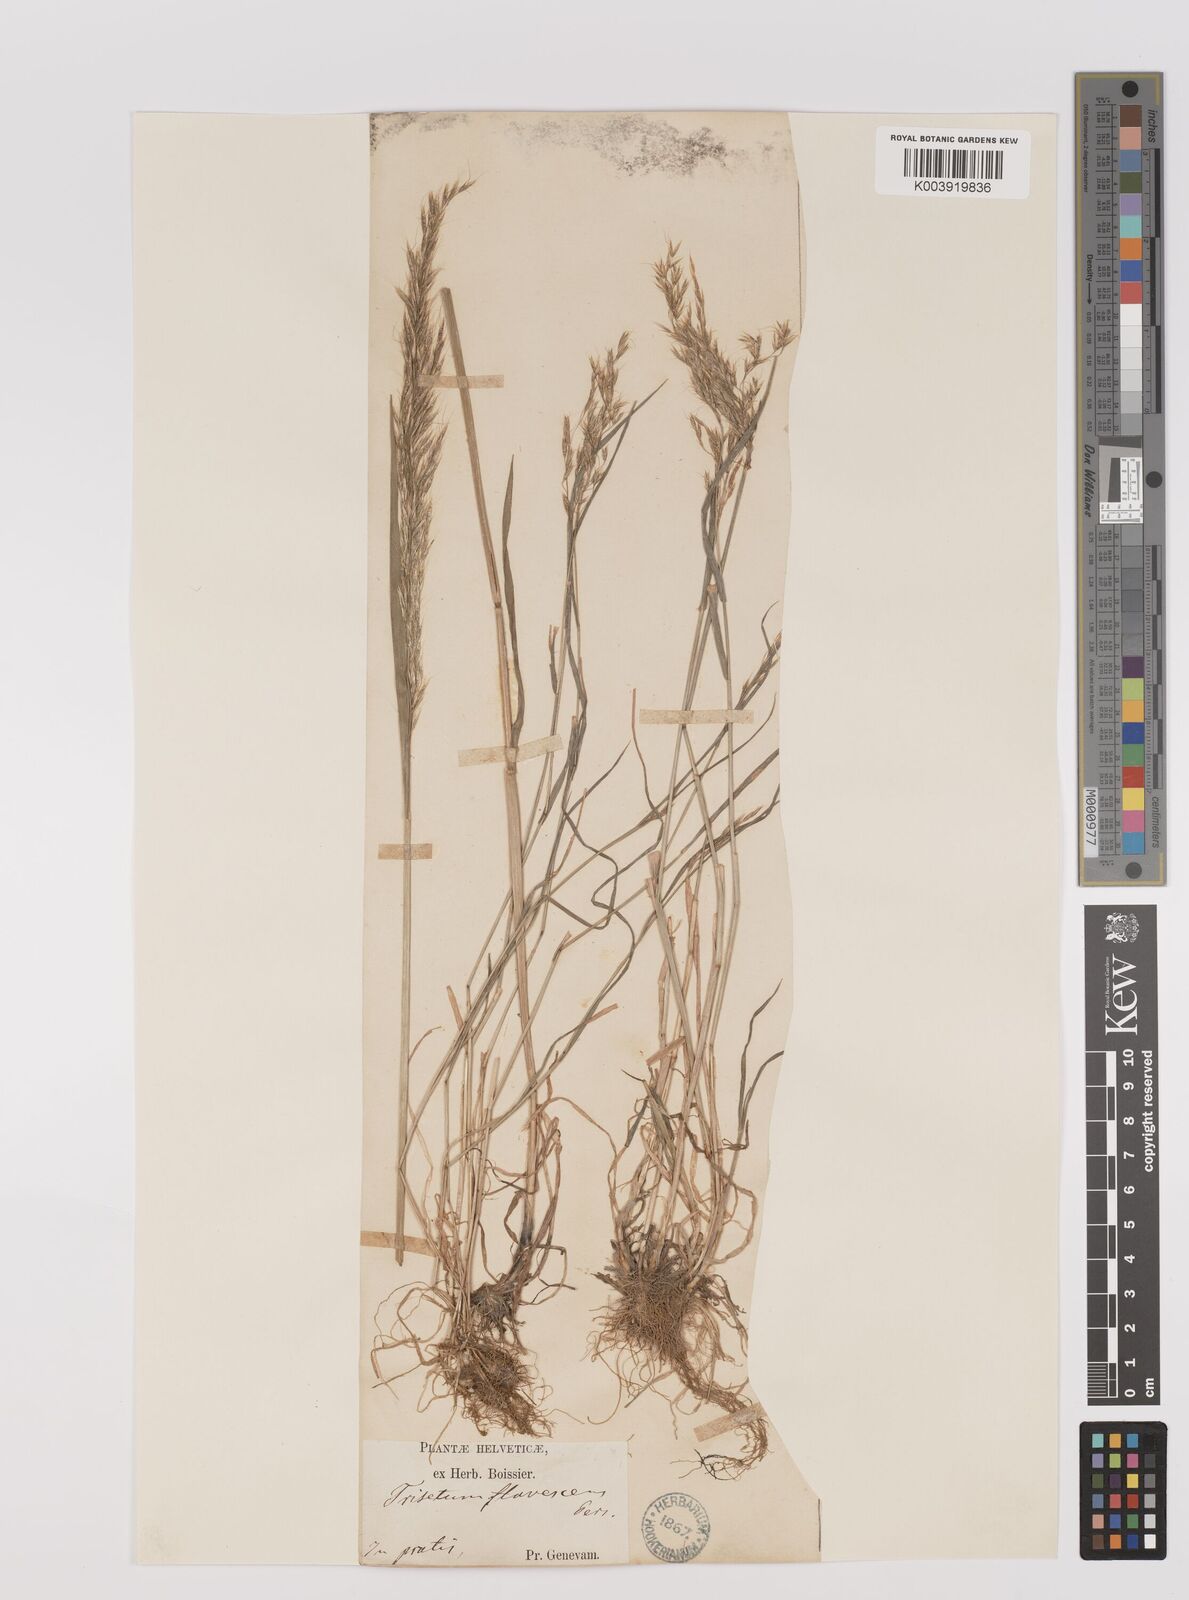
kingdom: Plantae
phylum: Tracheophyta
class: Liliopsida
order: Poales
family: Poaceae
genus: Trisetum
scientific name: Trisetum flavescens
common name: Yellow oat-grass
